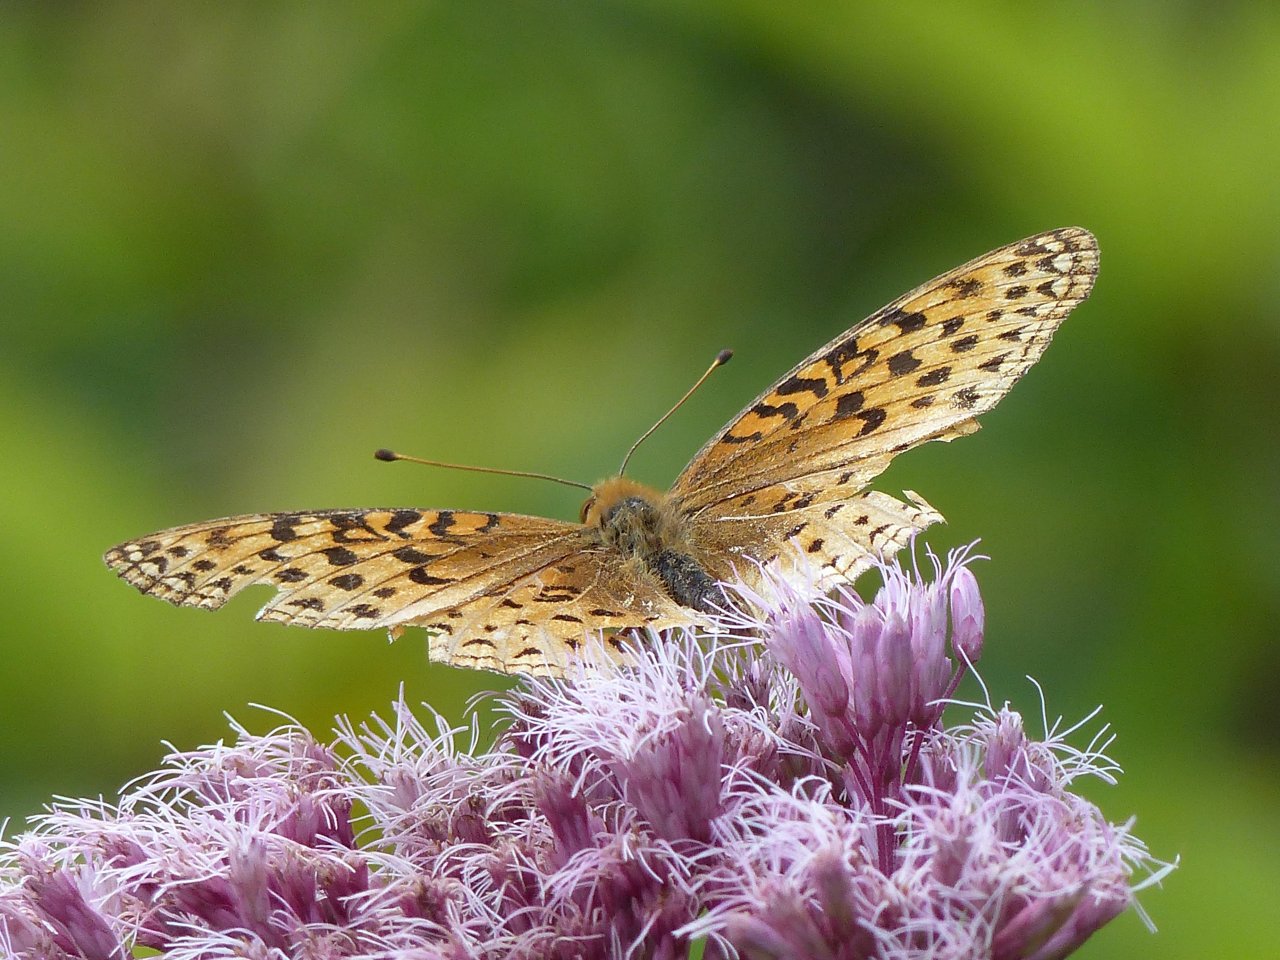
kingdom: Animalia
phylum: Arthropoda
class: Insecta
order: Lepidoptera
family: Nymphalidae
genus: Speyeria
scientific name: Speyeria aphrodite
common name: Aphrodite Fritillary
